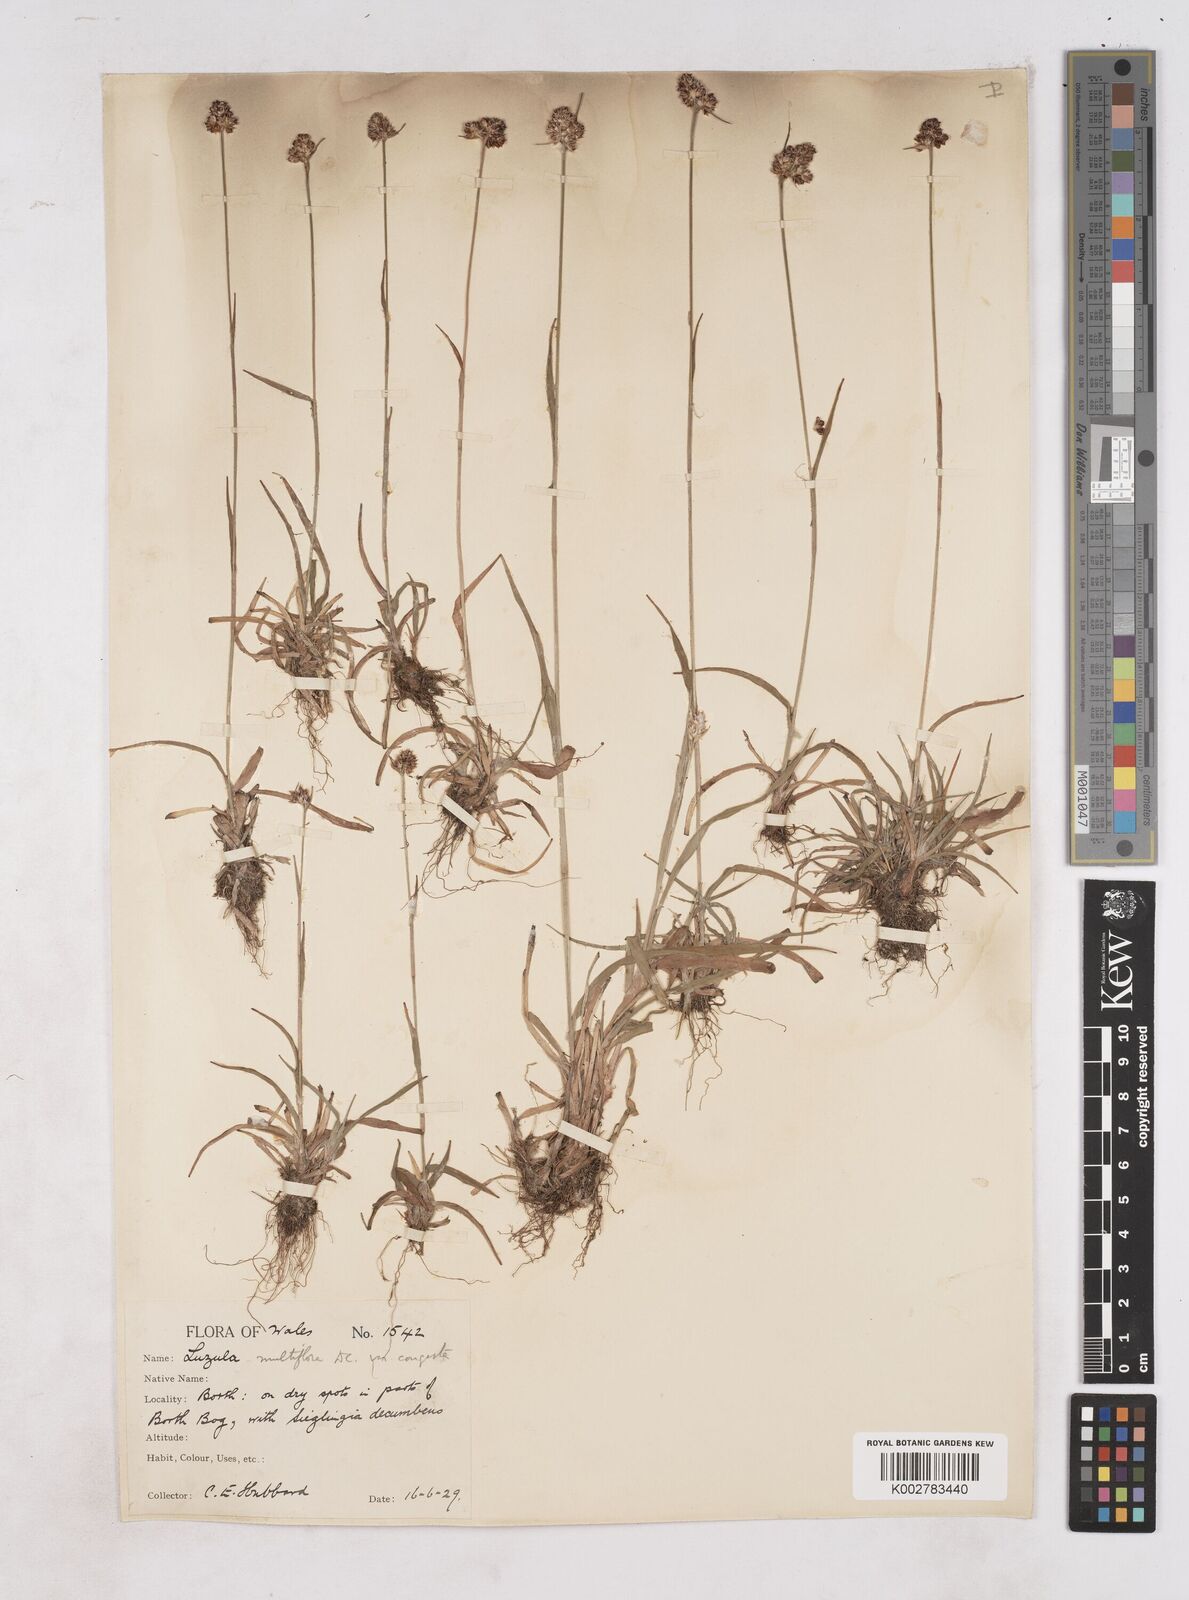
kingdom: Plantae
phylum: Tracheophyta
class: Liliopsida
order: Poales
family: Juncaceae
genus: Luzula
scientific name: Luzula campestris
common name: Field wood-rush
